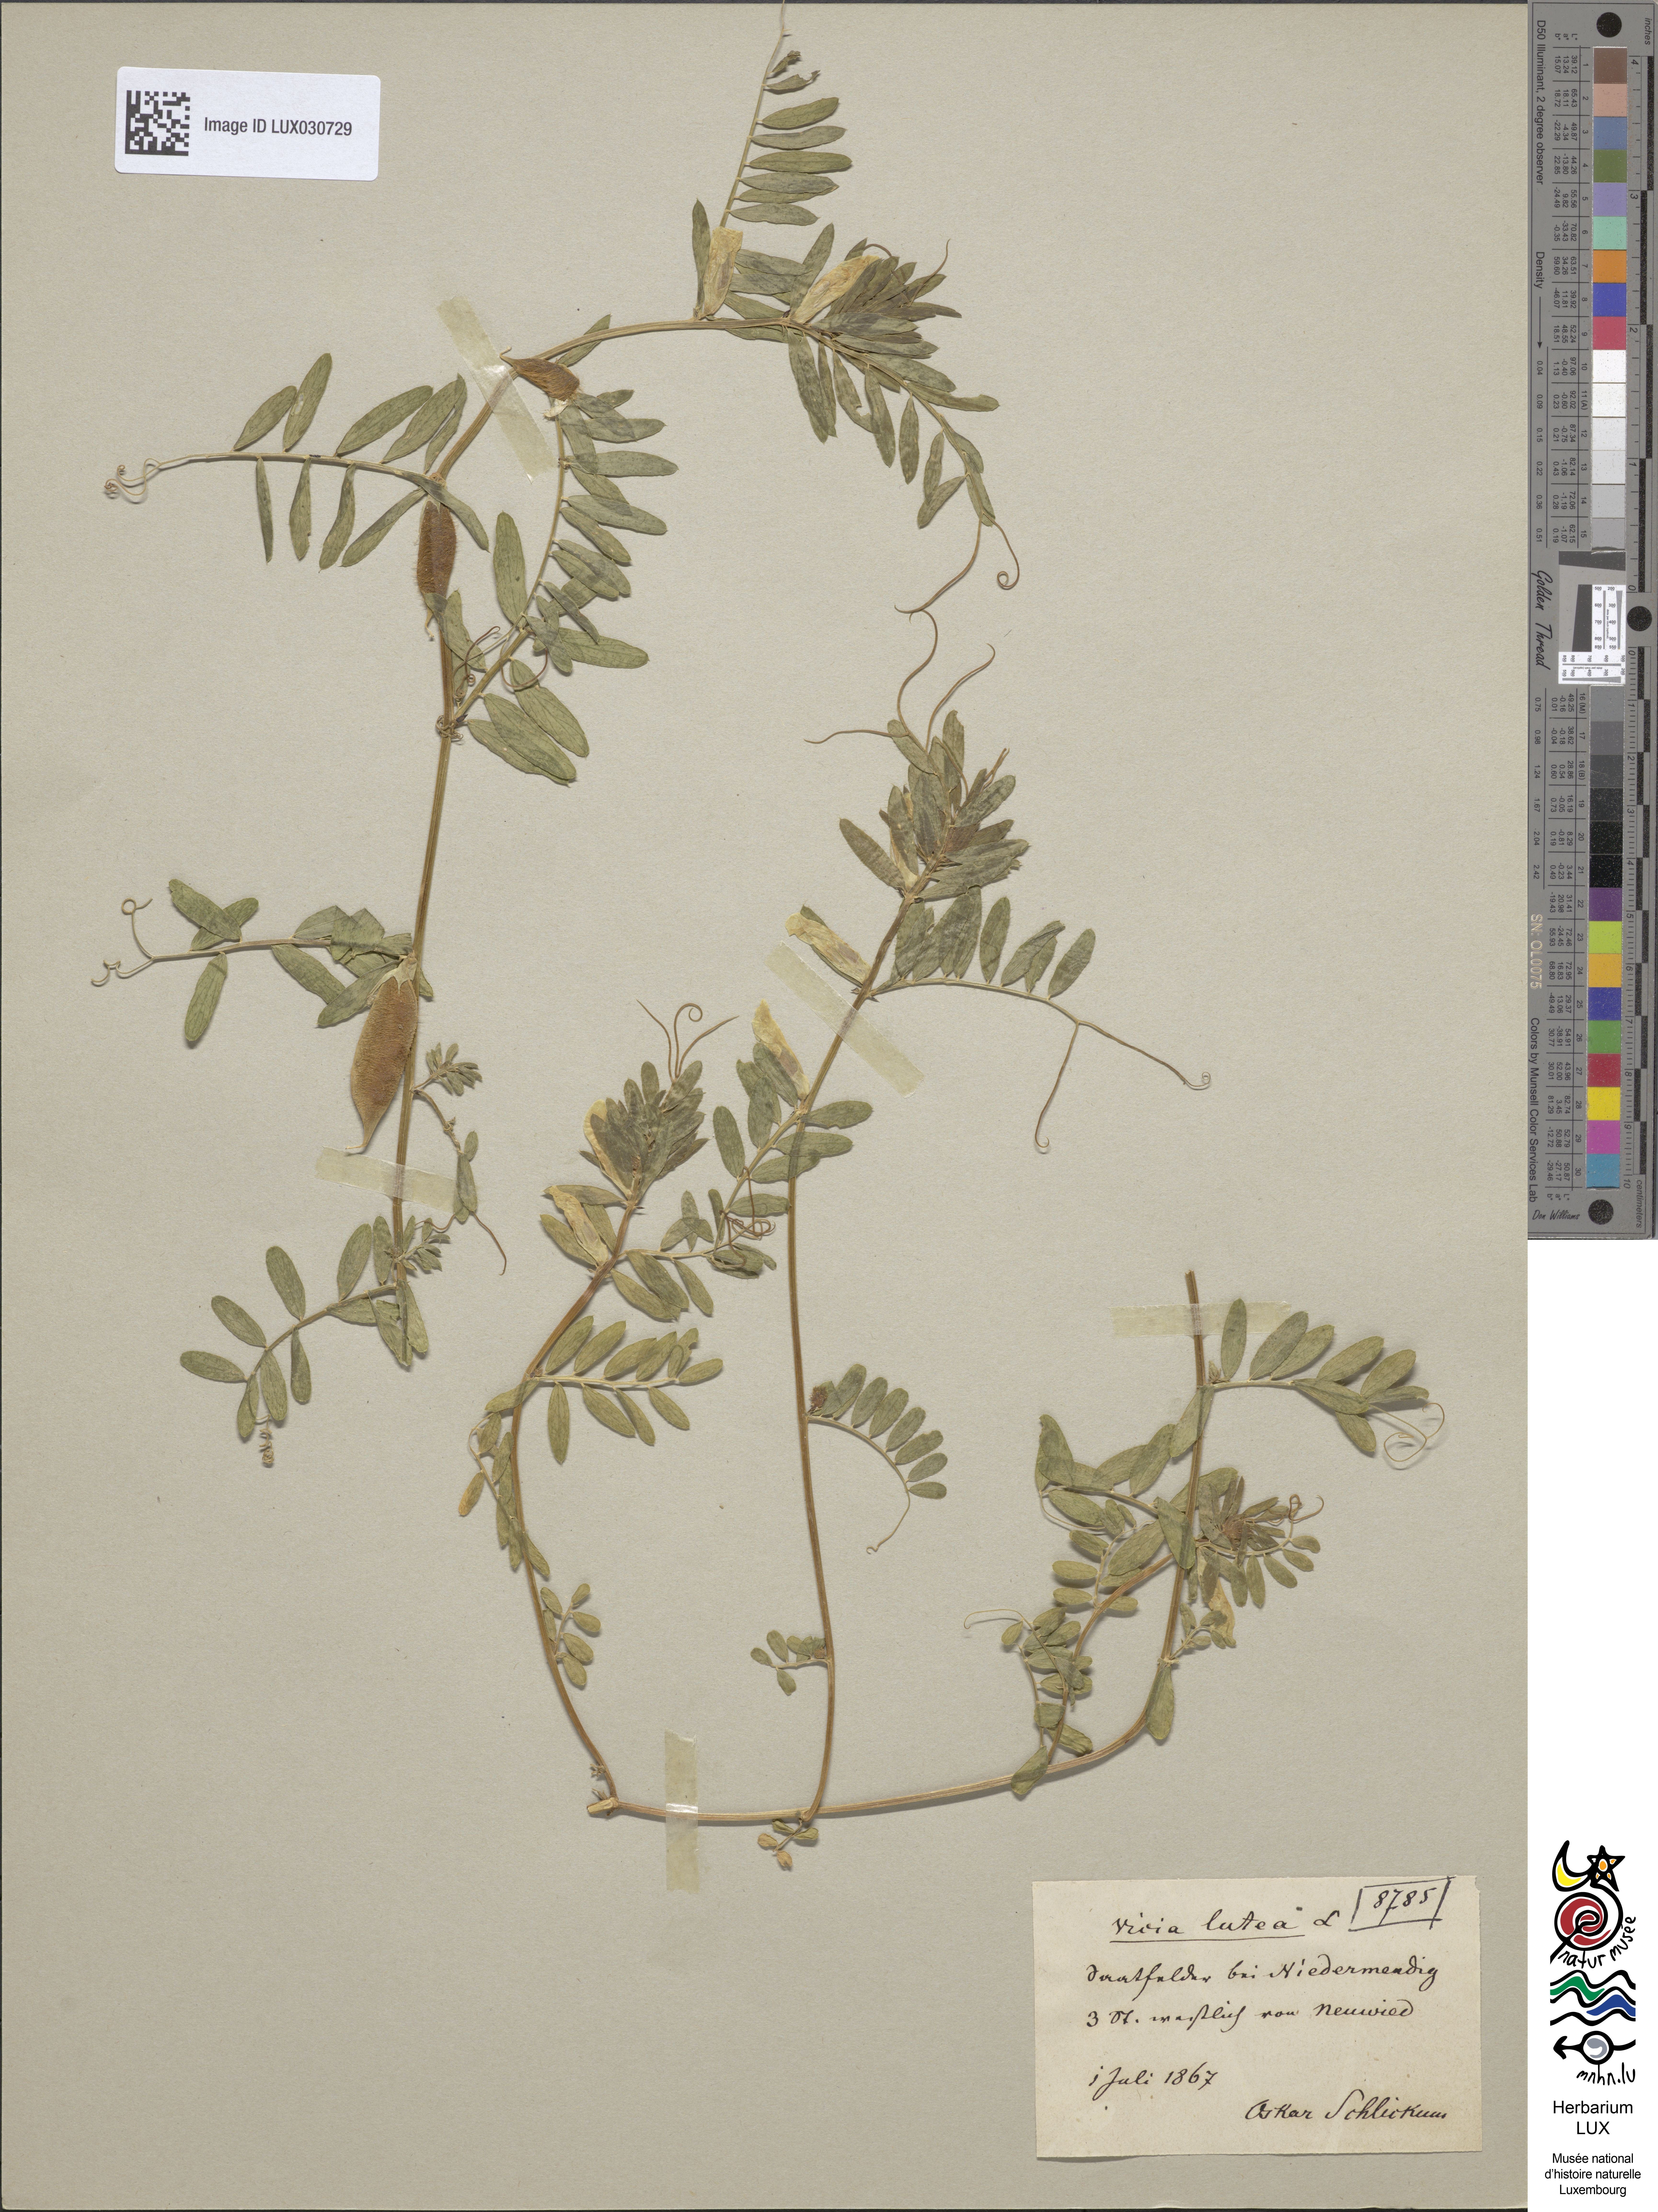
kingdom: Plantae
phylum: Tracheophyta
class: Magnoliopsida
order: Fabales
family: Fabaceae
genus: Vicia
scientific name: Vicia lutea
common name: Smooth yellow vetch
